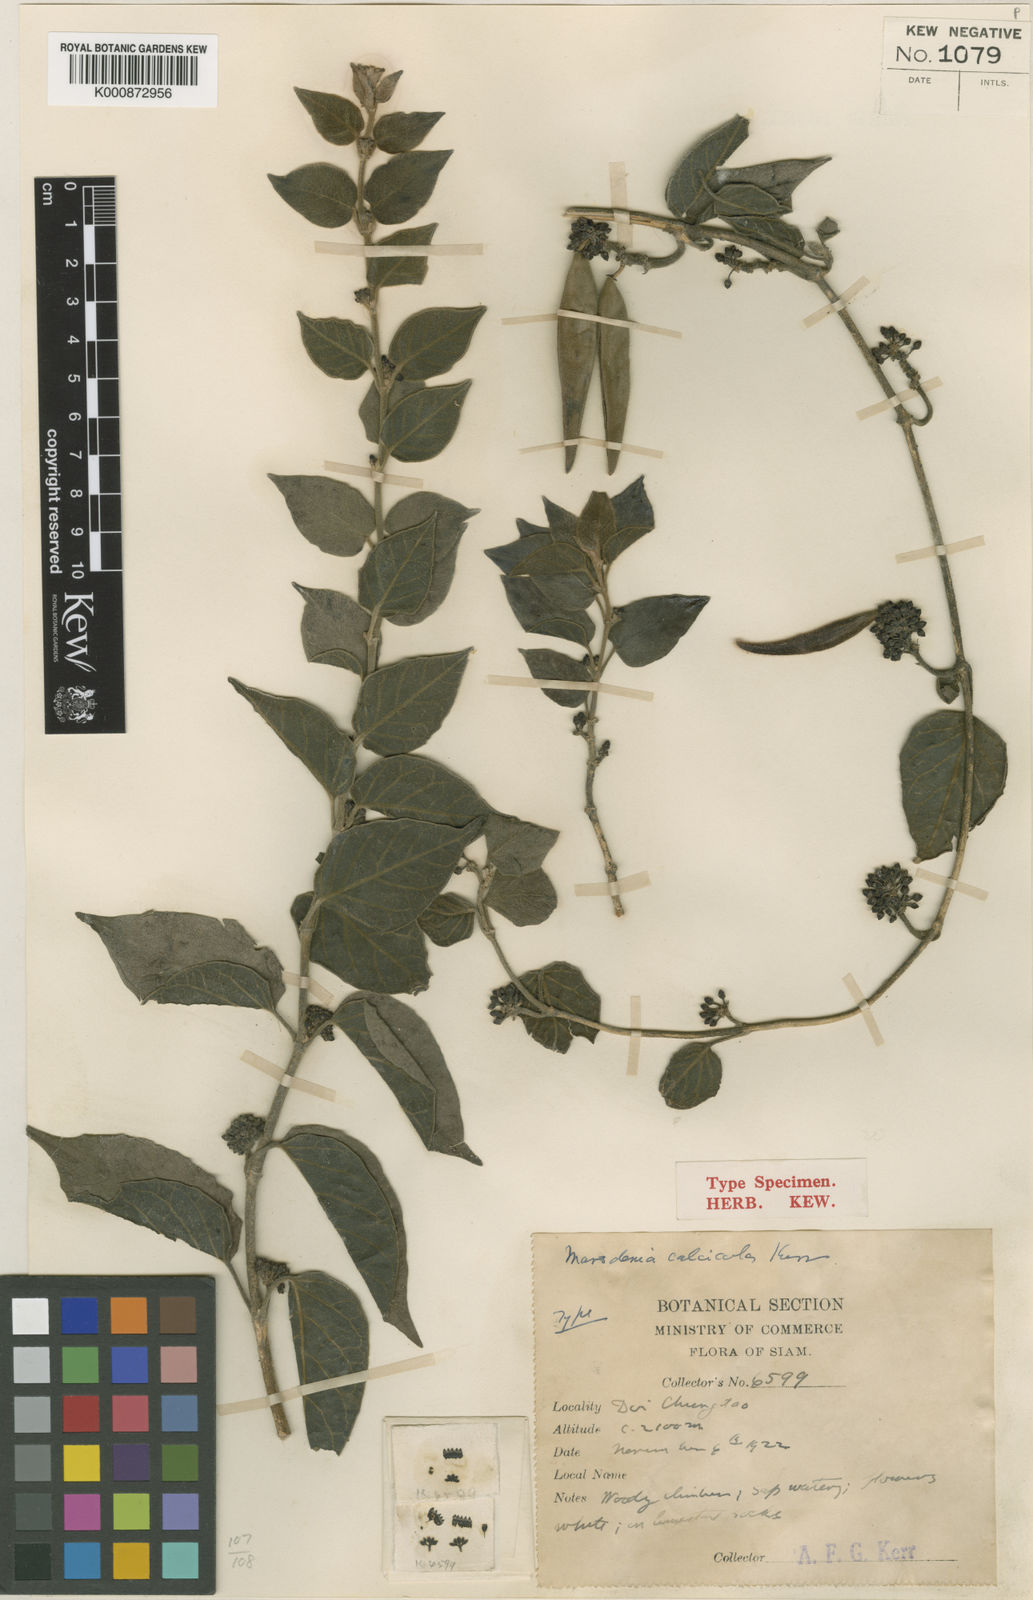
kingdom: Plantae
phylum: Tracheophyta
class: Magnoliopsida
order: Gentianales
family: Apocynaceae
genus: Marsdenia
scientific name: Marsdenia calcicola
